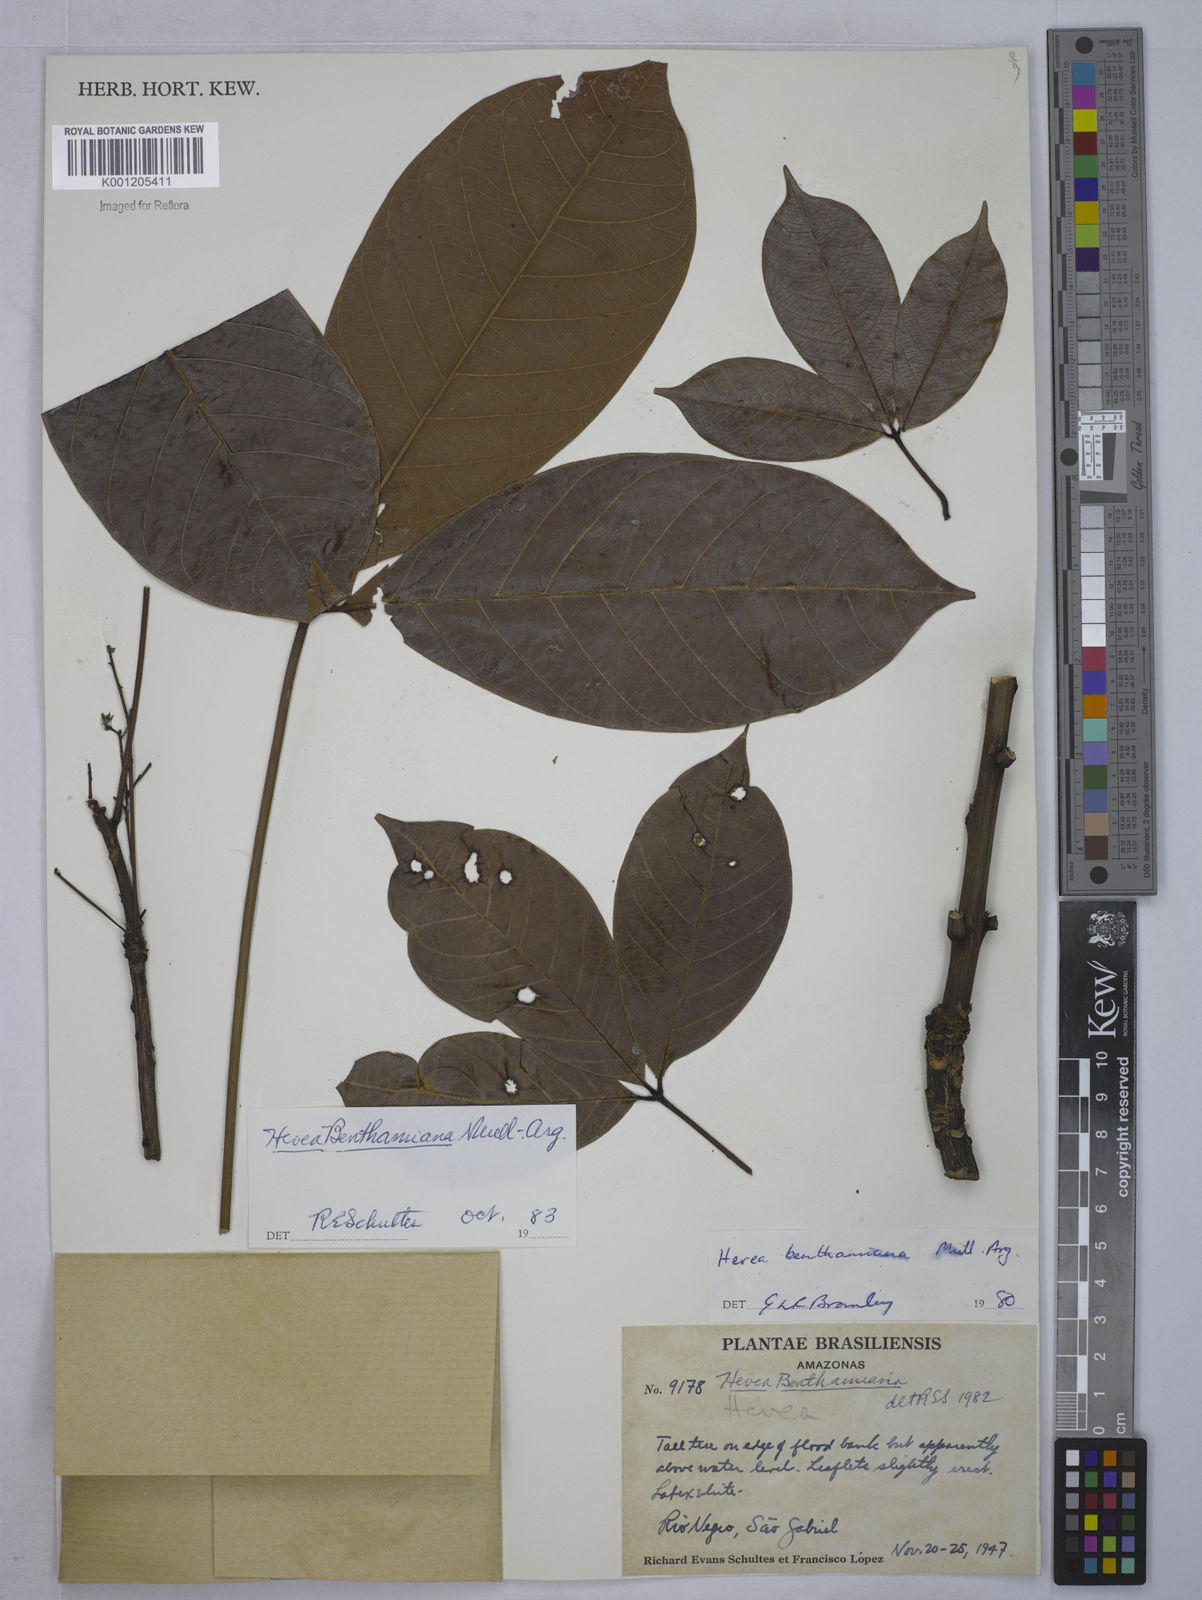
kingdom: Plantae
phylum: Tracheophyta
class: Magnoliopsida
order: Malpighiales
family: Euphorbiaceae
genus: Hevea
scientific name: Hevea
